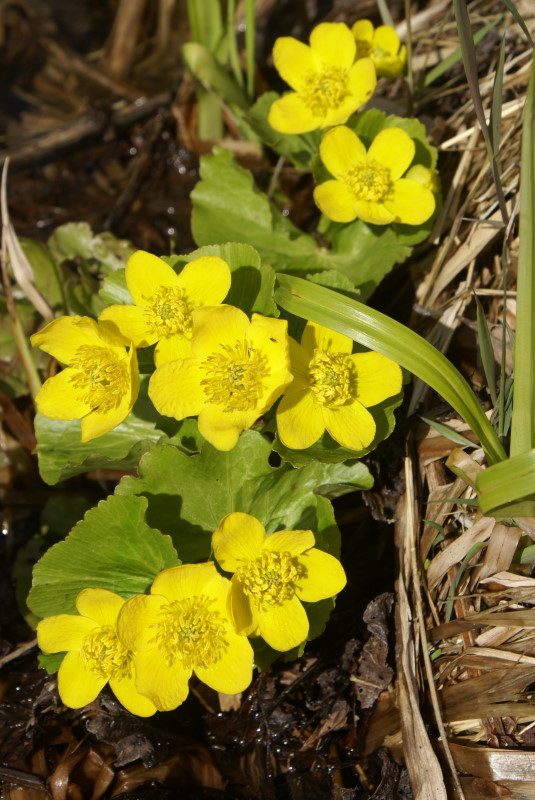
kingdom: Plantae
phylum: Tracheophyta
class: Magnoliopsida
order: Ranunculales
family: Ranunculaceae
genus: Caltha
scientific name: Caltha palustris
